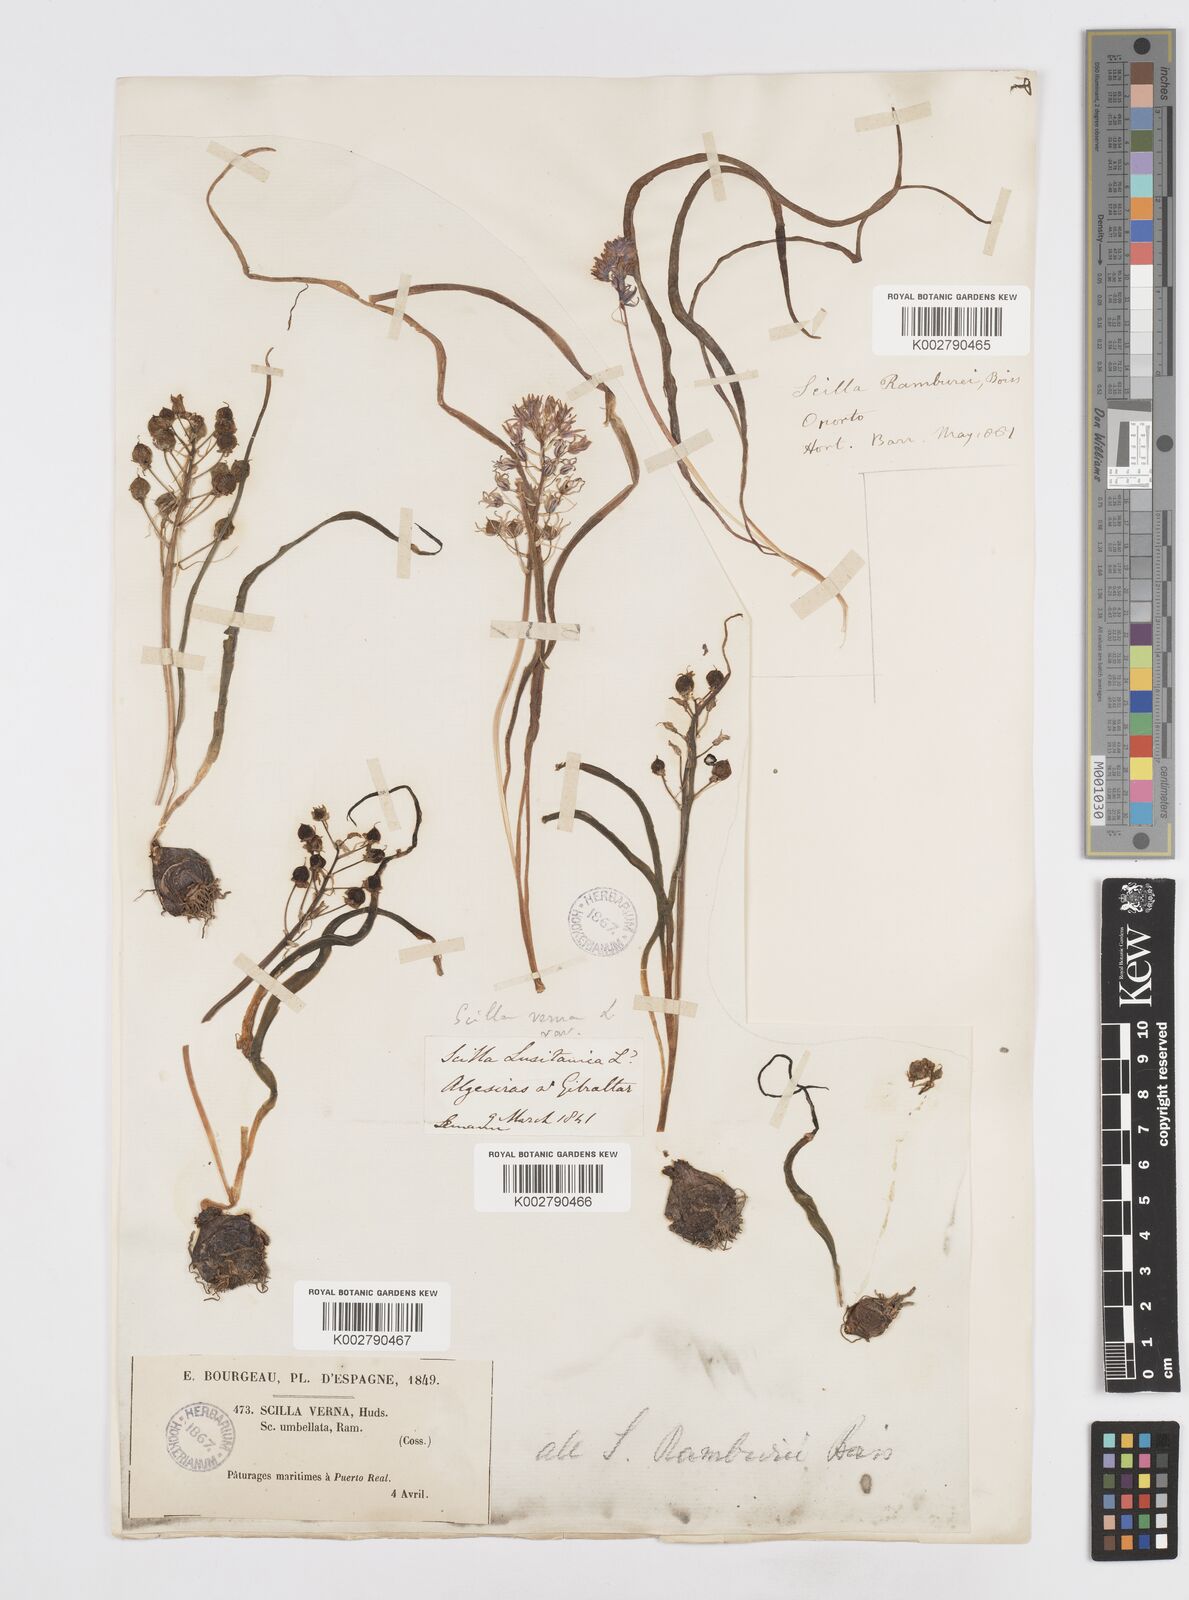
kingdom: Plantae
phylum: Tracheophyta
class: Liliopsida
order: Asparagales
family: Asparagaceae
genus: Scilla
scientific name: Scilla verna
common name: Spring squill
